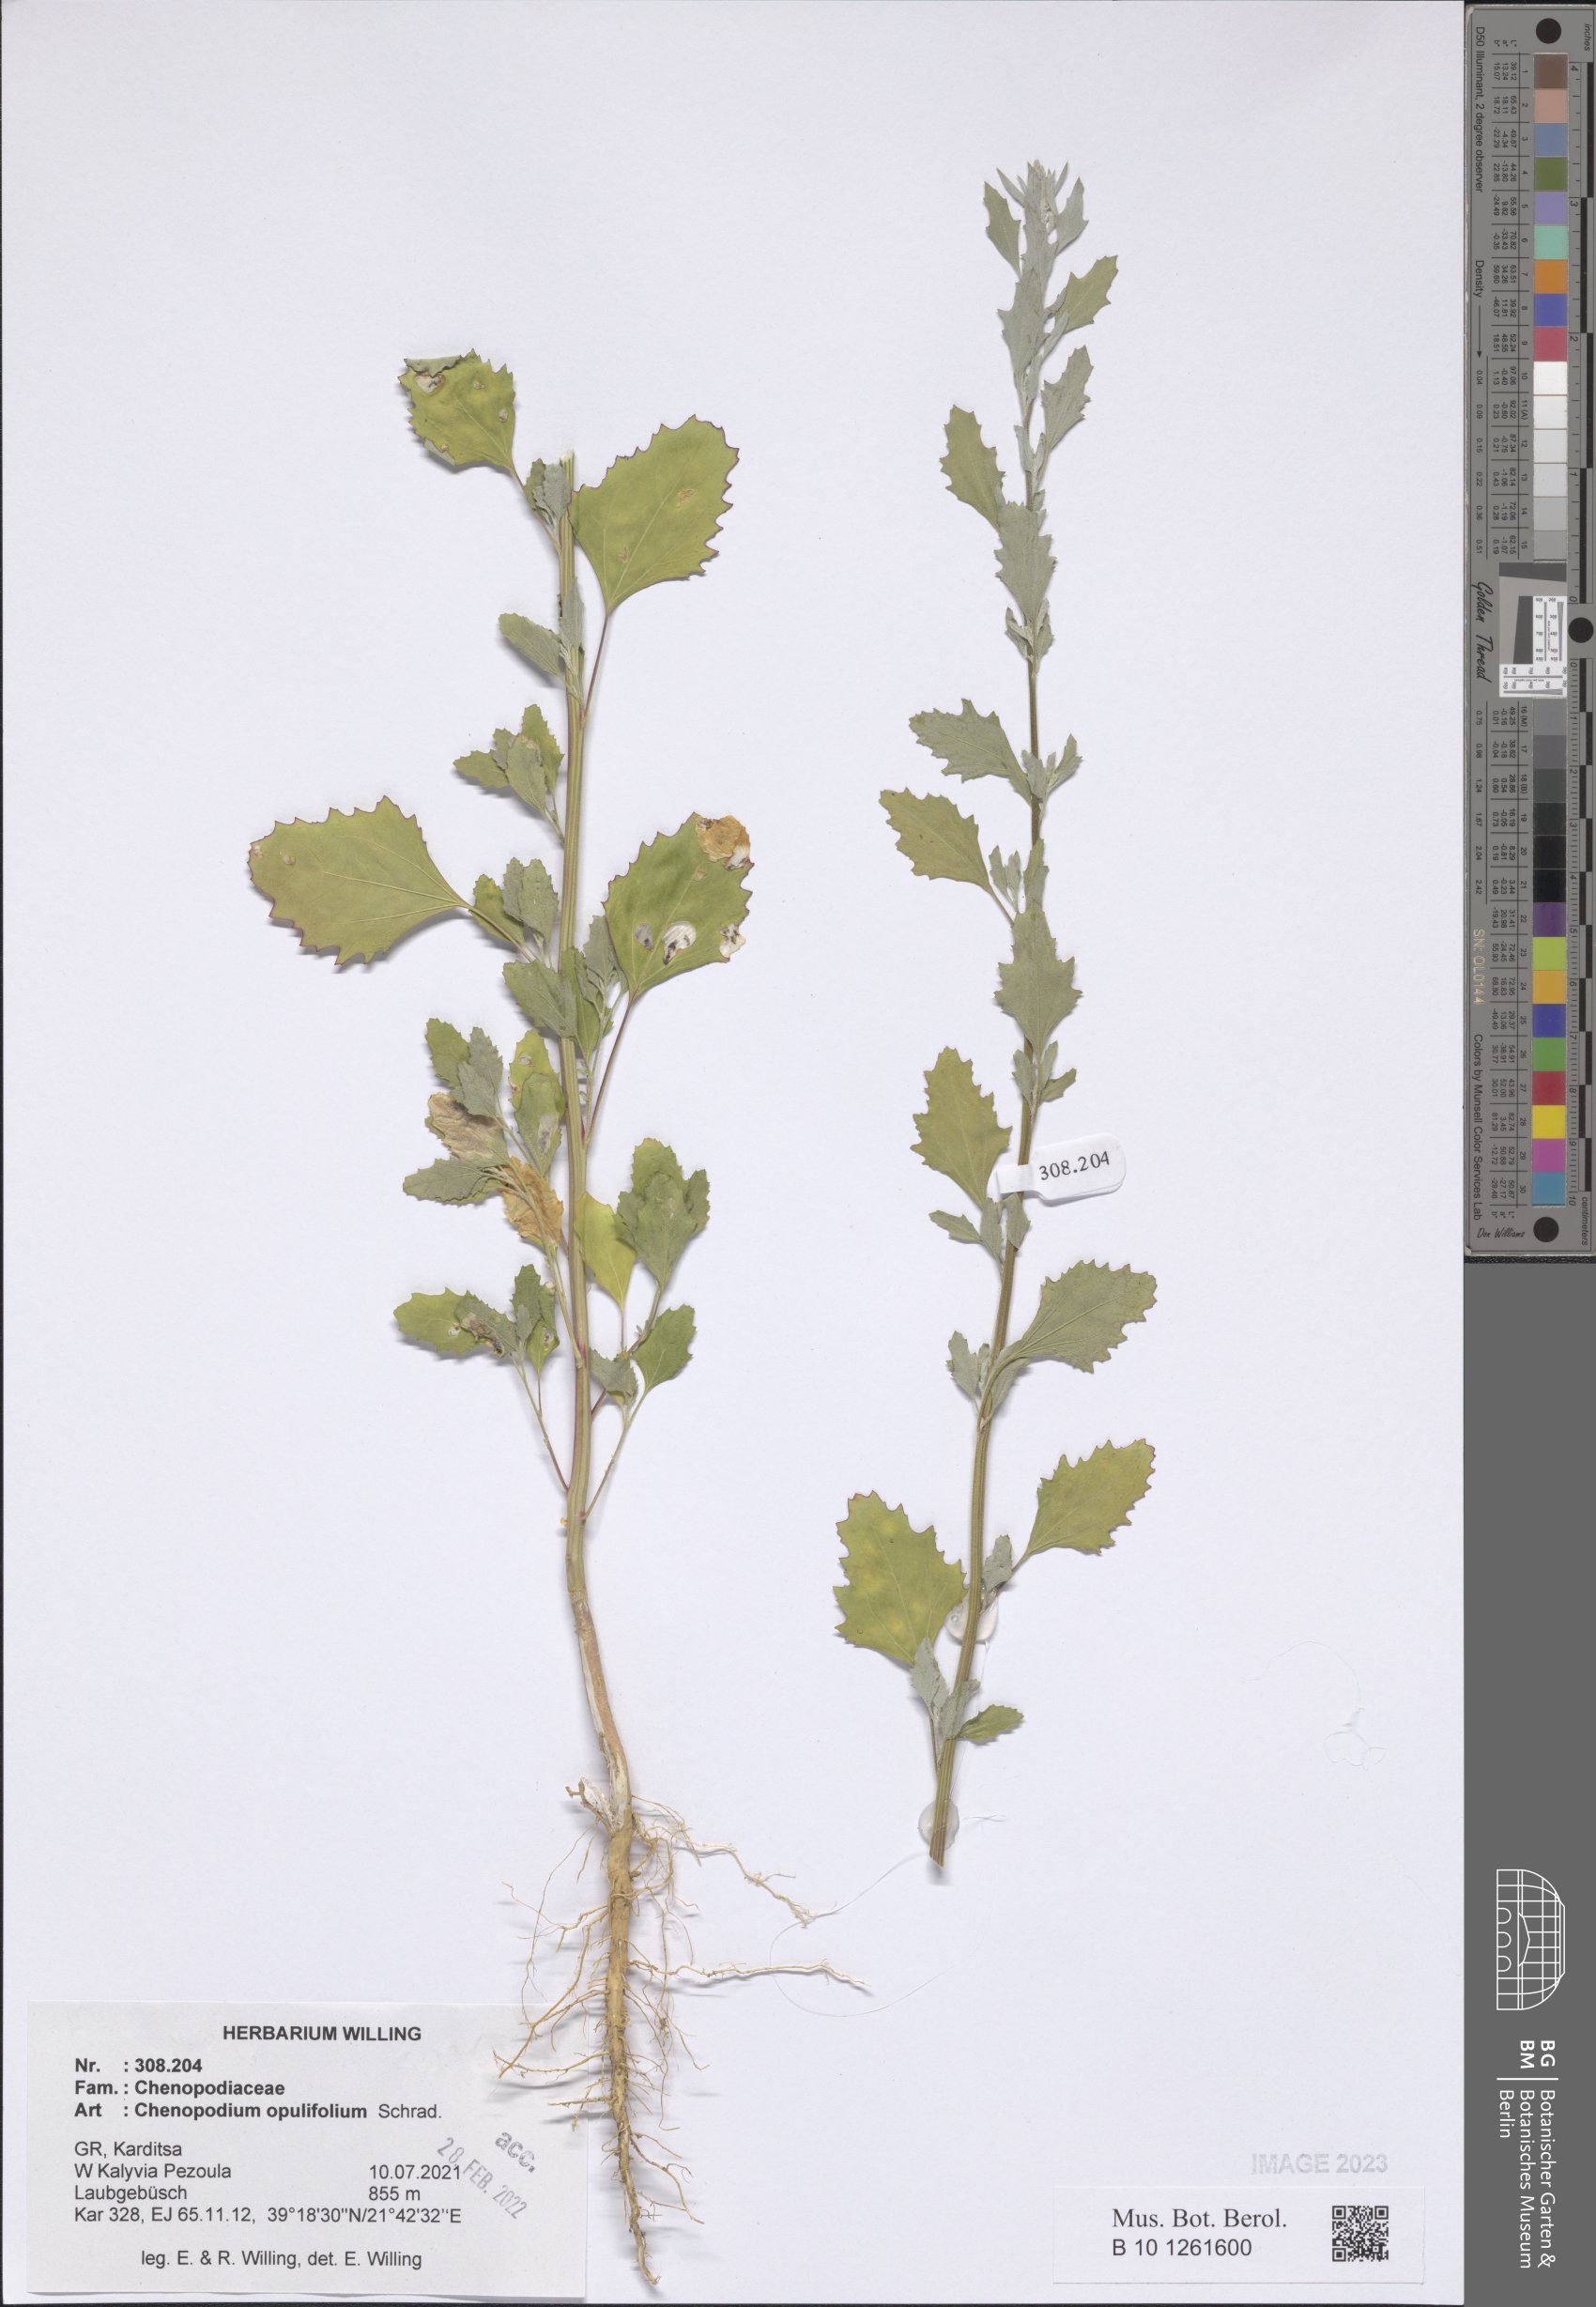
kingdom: Plantae
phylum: Tracheophyta
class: Magnoliopsida
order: Caryophyllales
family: Amaranthaceae
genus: Chenopodium
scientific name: Chenopodium opulifolium
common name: Grey goosefoot
